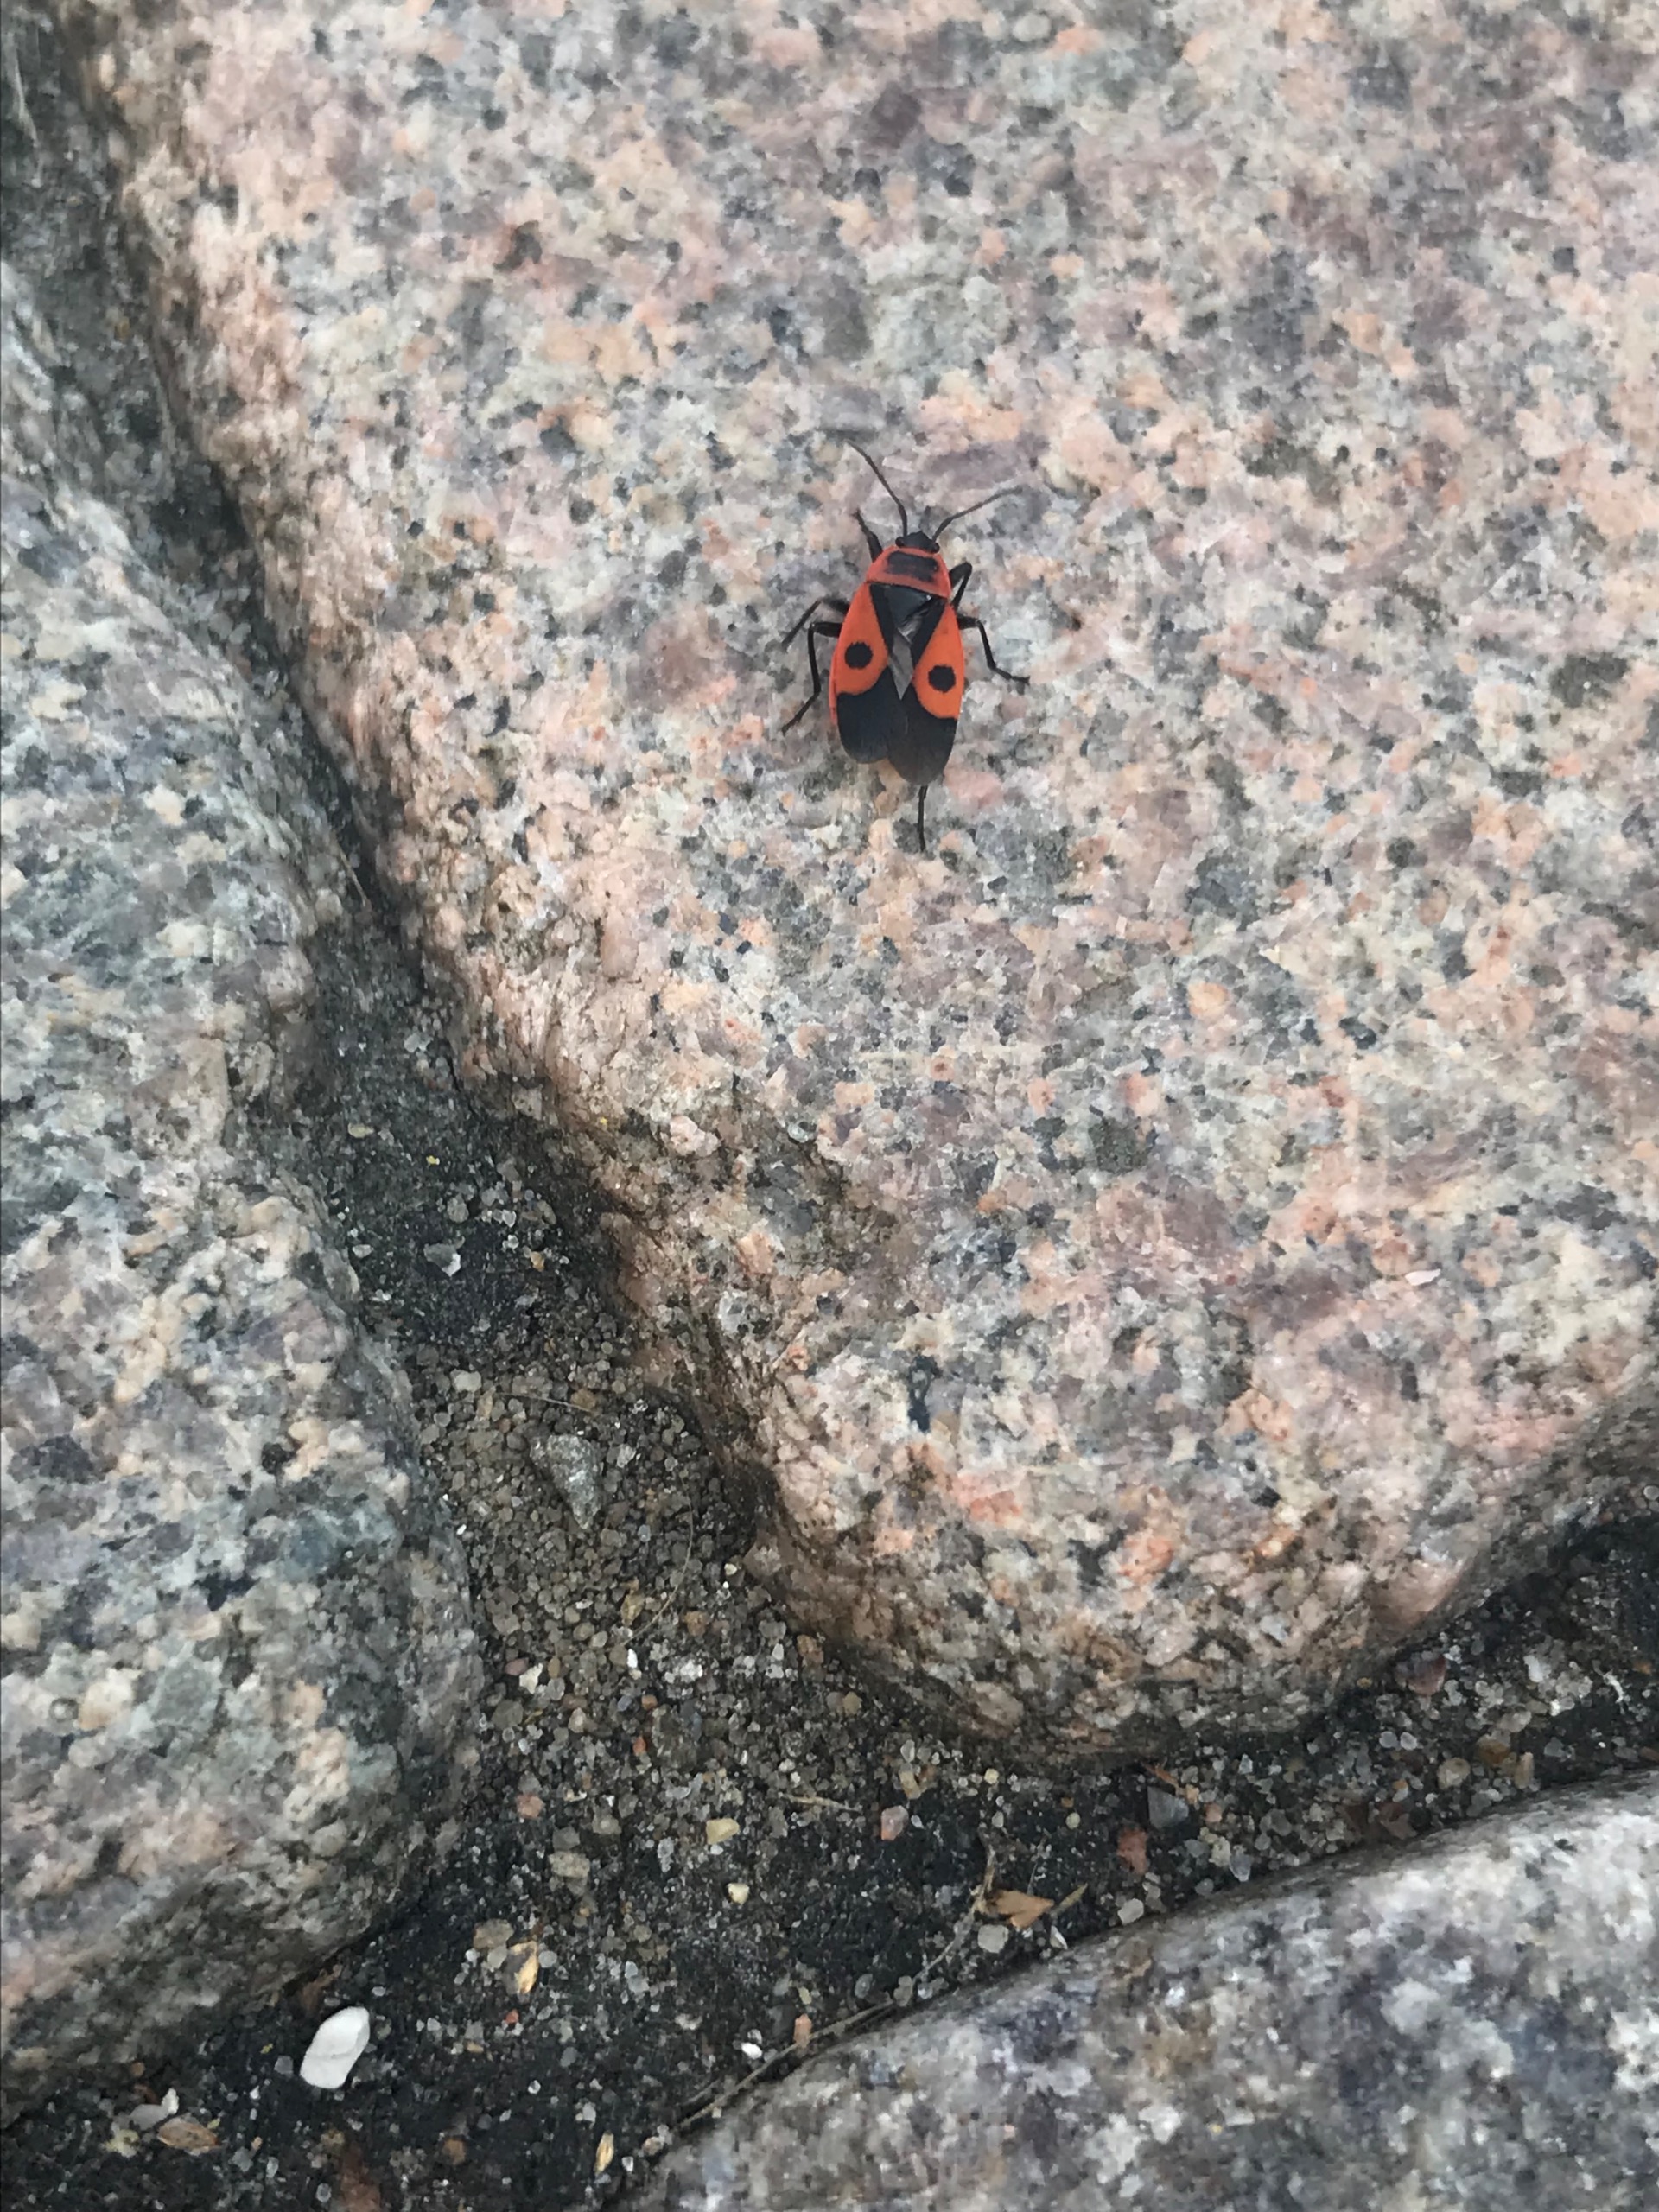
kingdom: Animalia
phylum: Arthropoda
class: Insecta
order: Hemiptera
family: Pyrrhocoridae
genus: Pyrrhocoris
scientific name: Pyrrhocoris apterus
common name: Ildtæge
